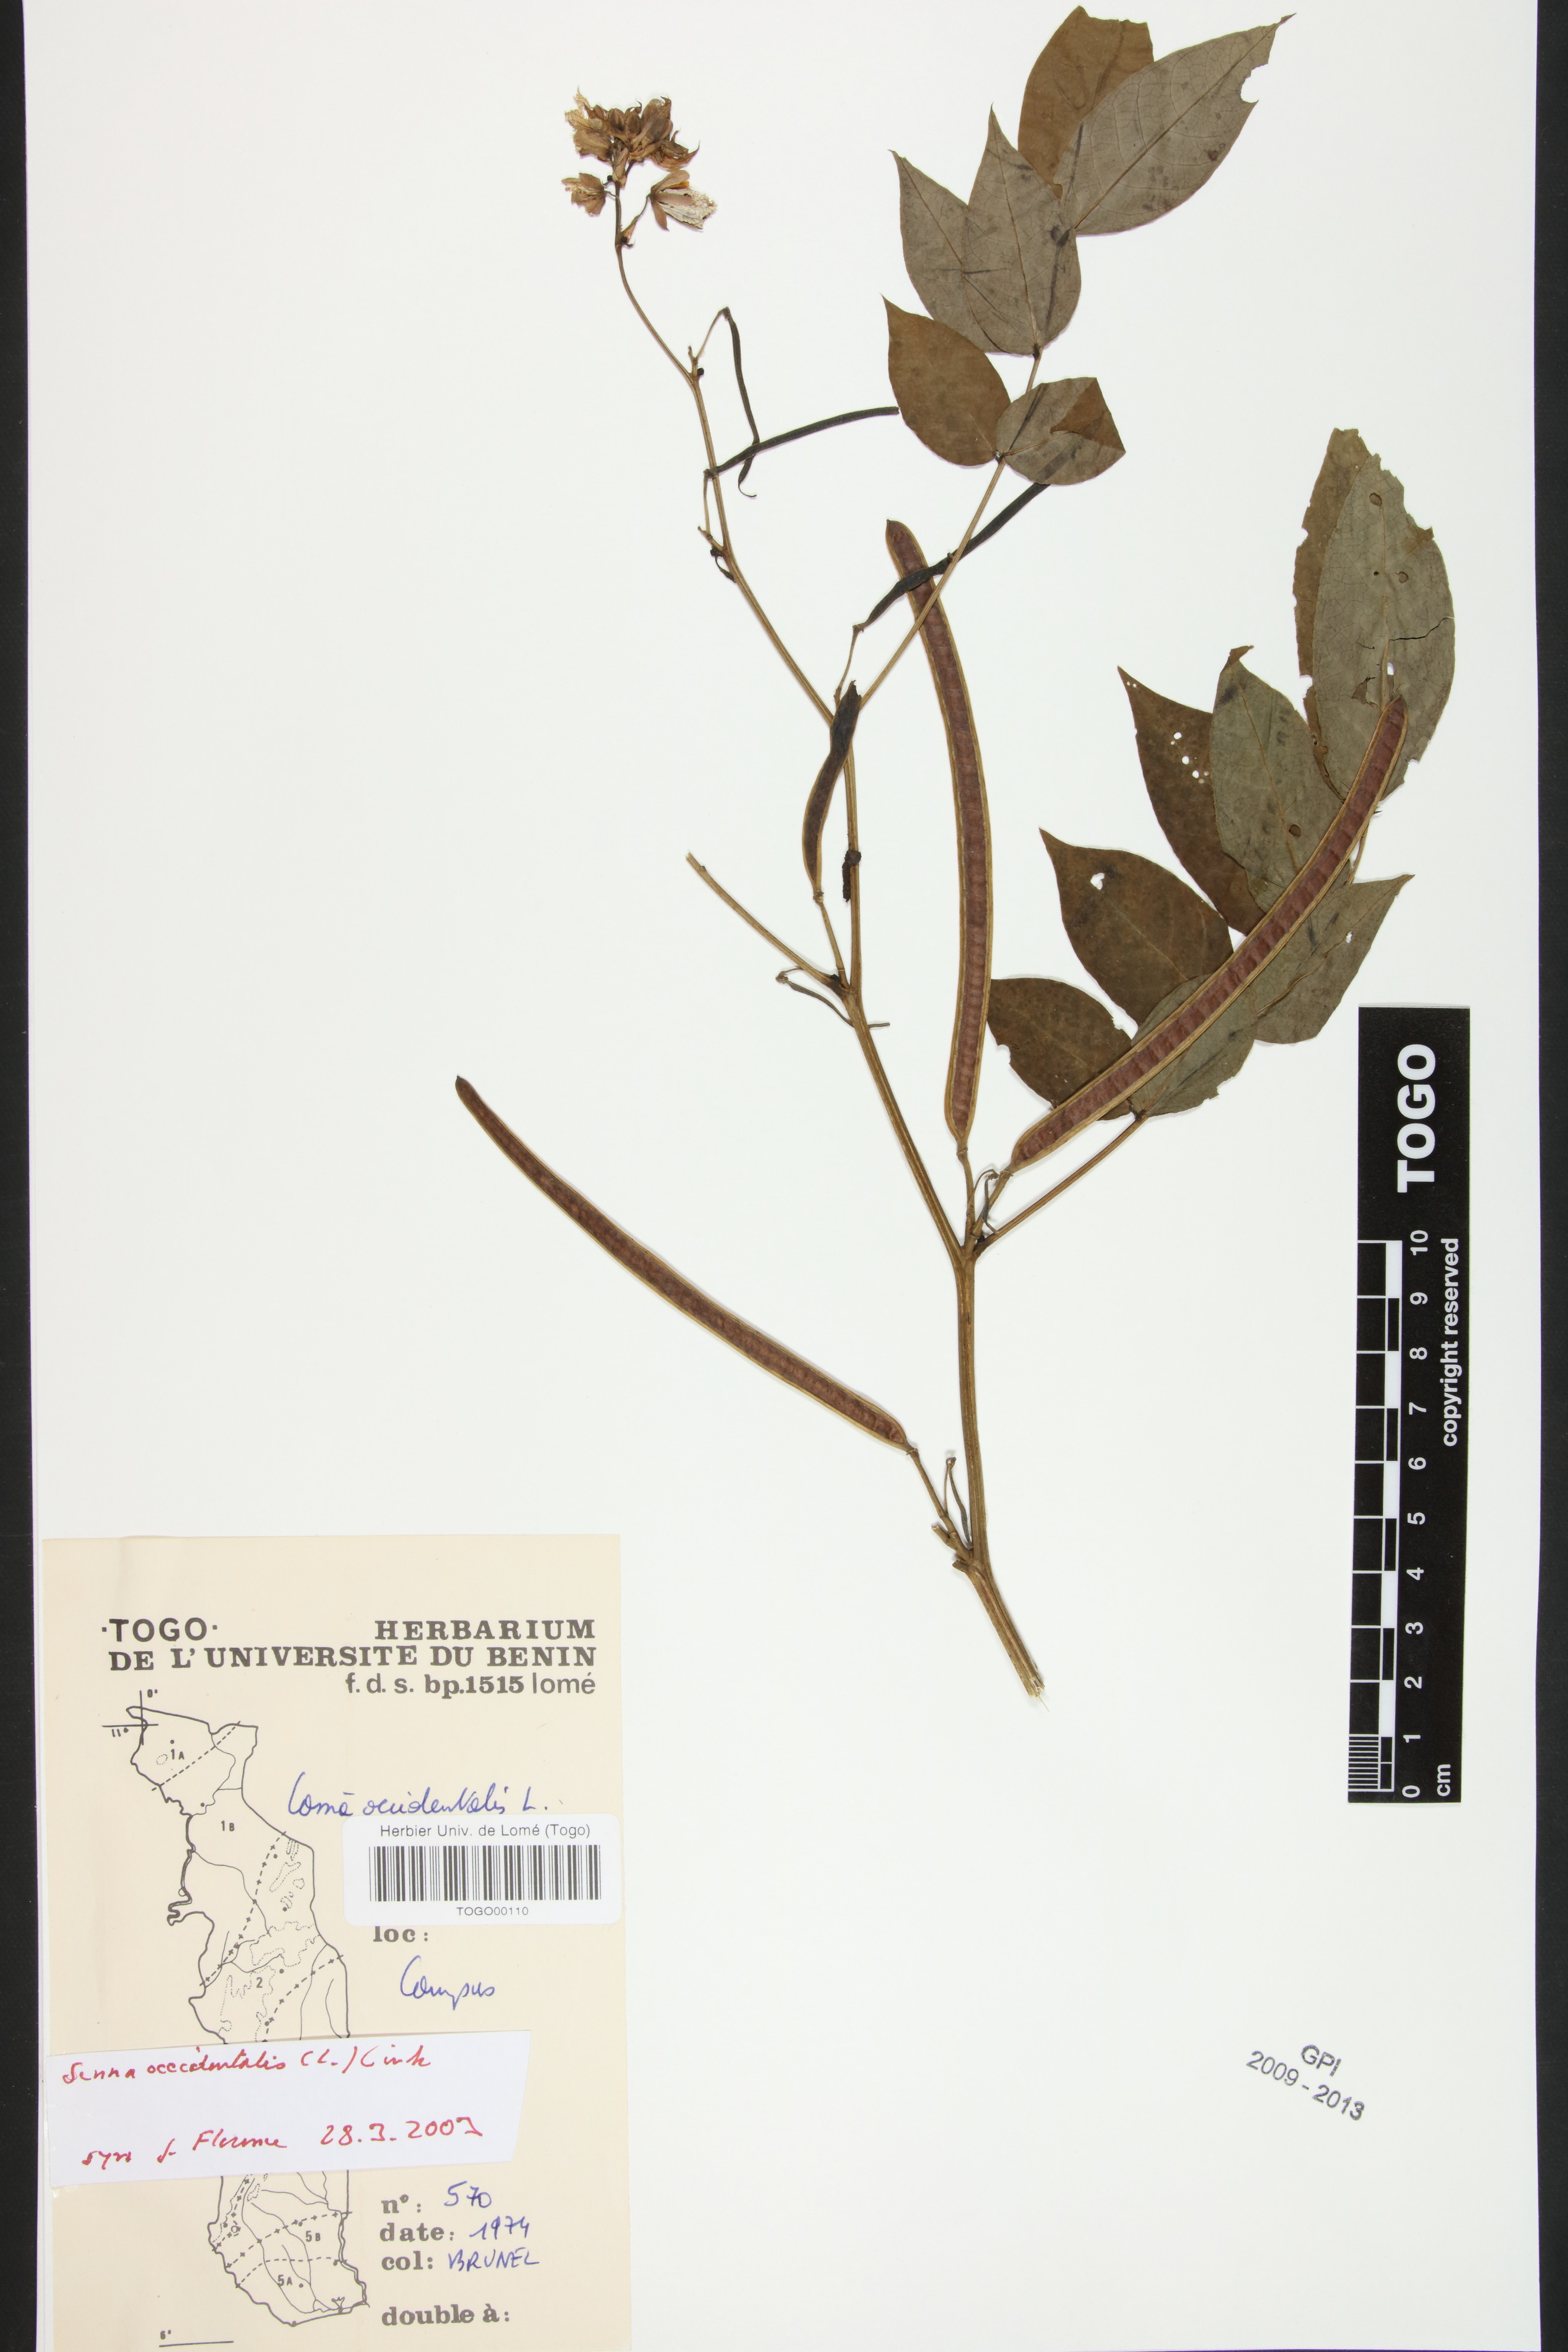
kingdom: Plantae
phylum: Tracheophyta
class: Magnoliopsida
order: Fabales
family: Fabaceae
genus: Senna
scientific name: Senna occidentalis
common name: Septicweed
